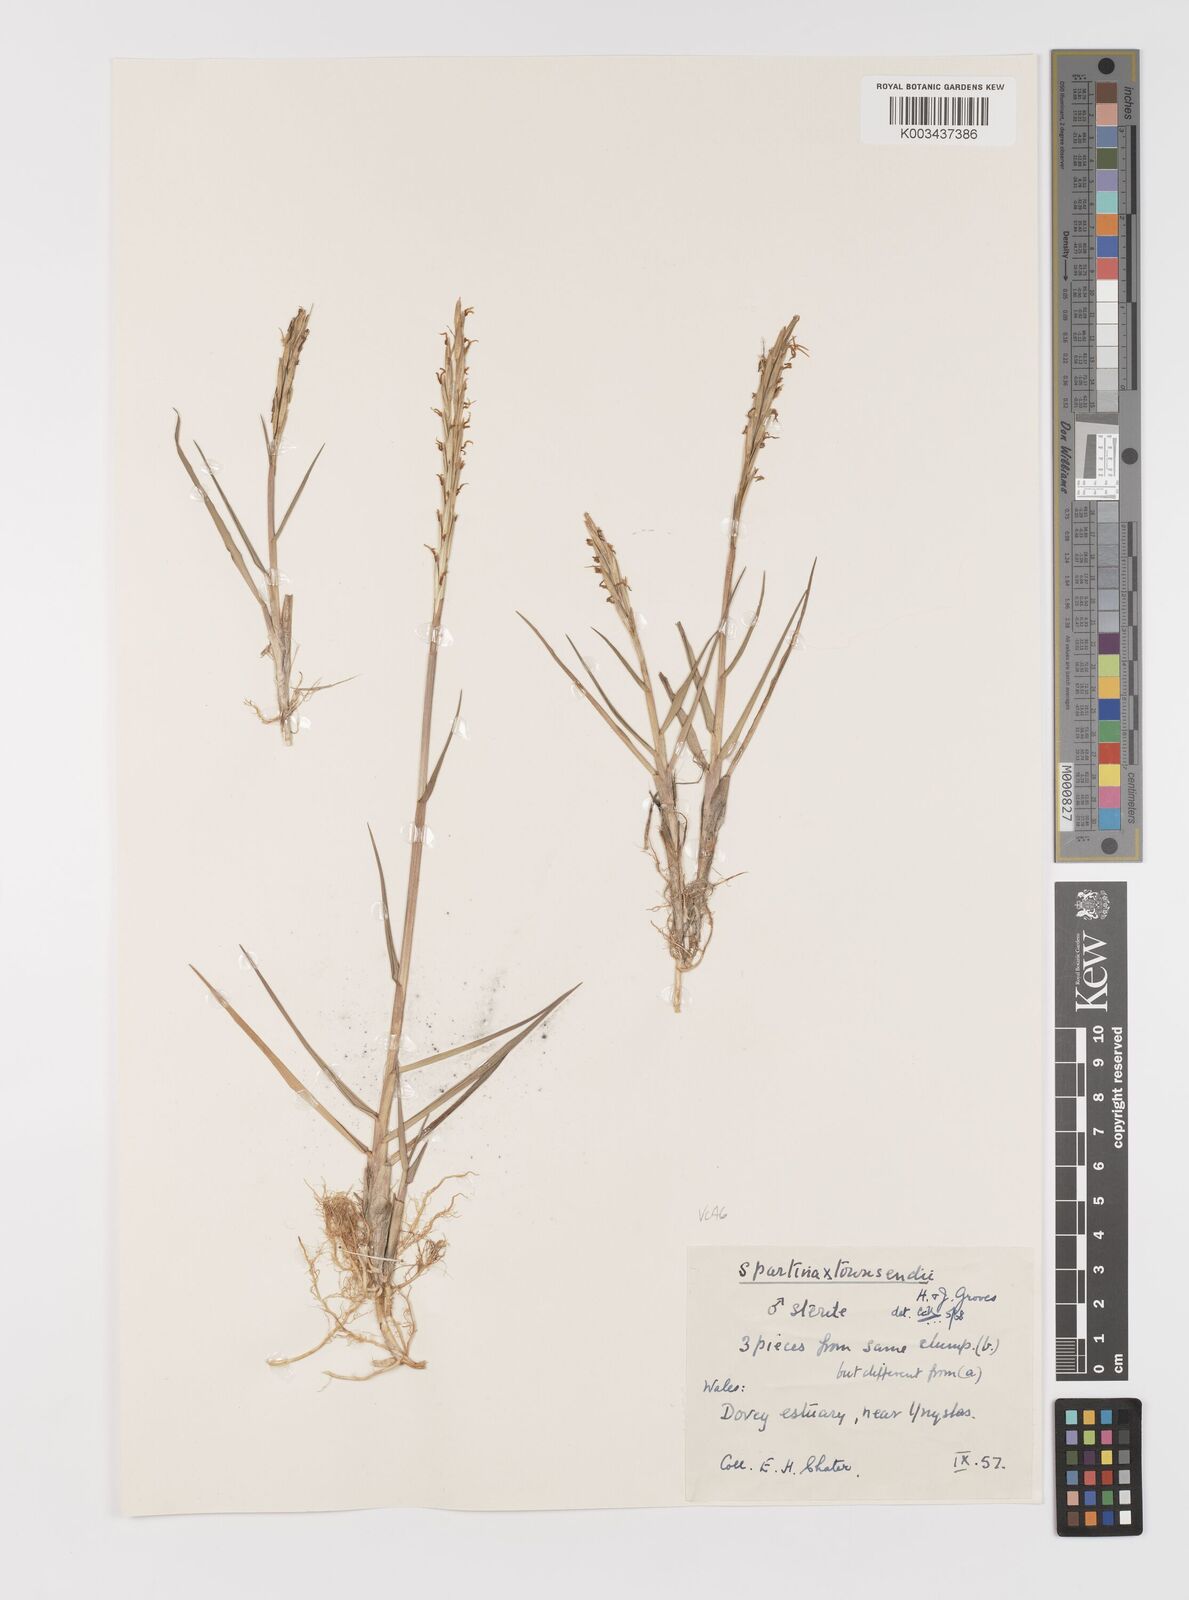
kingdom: Plantae
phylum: Tracheophyta
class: Liliopsida
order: Poales
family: Poaceae
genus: Sporobolus
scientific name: Sporobolus townsendii
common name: Townsend's cordgrass
